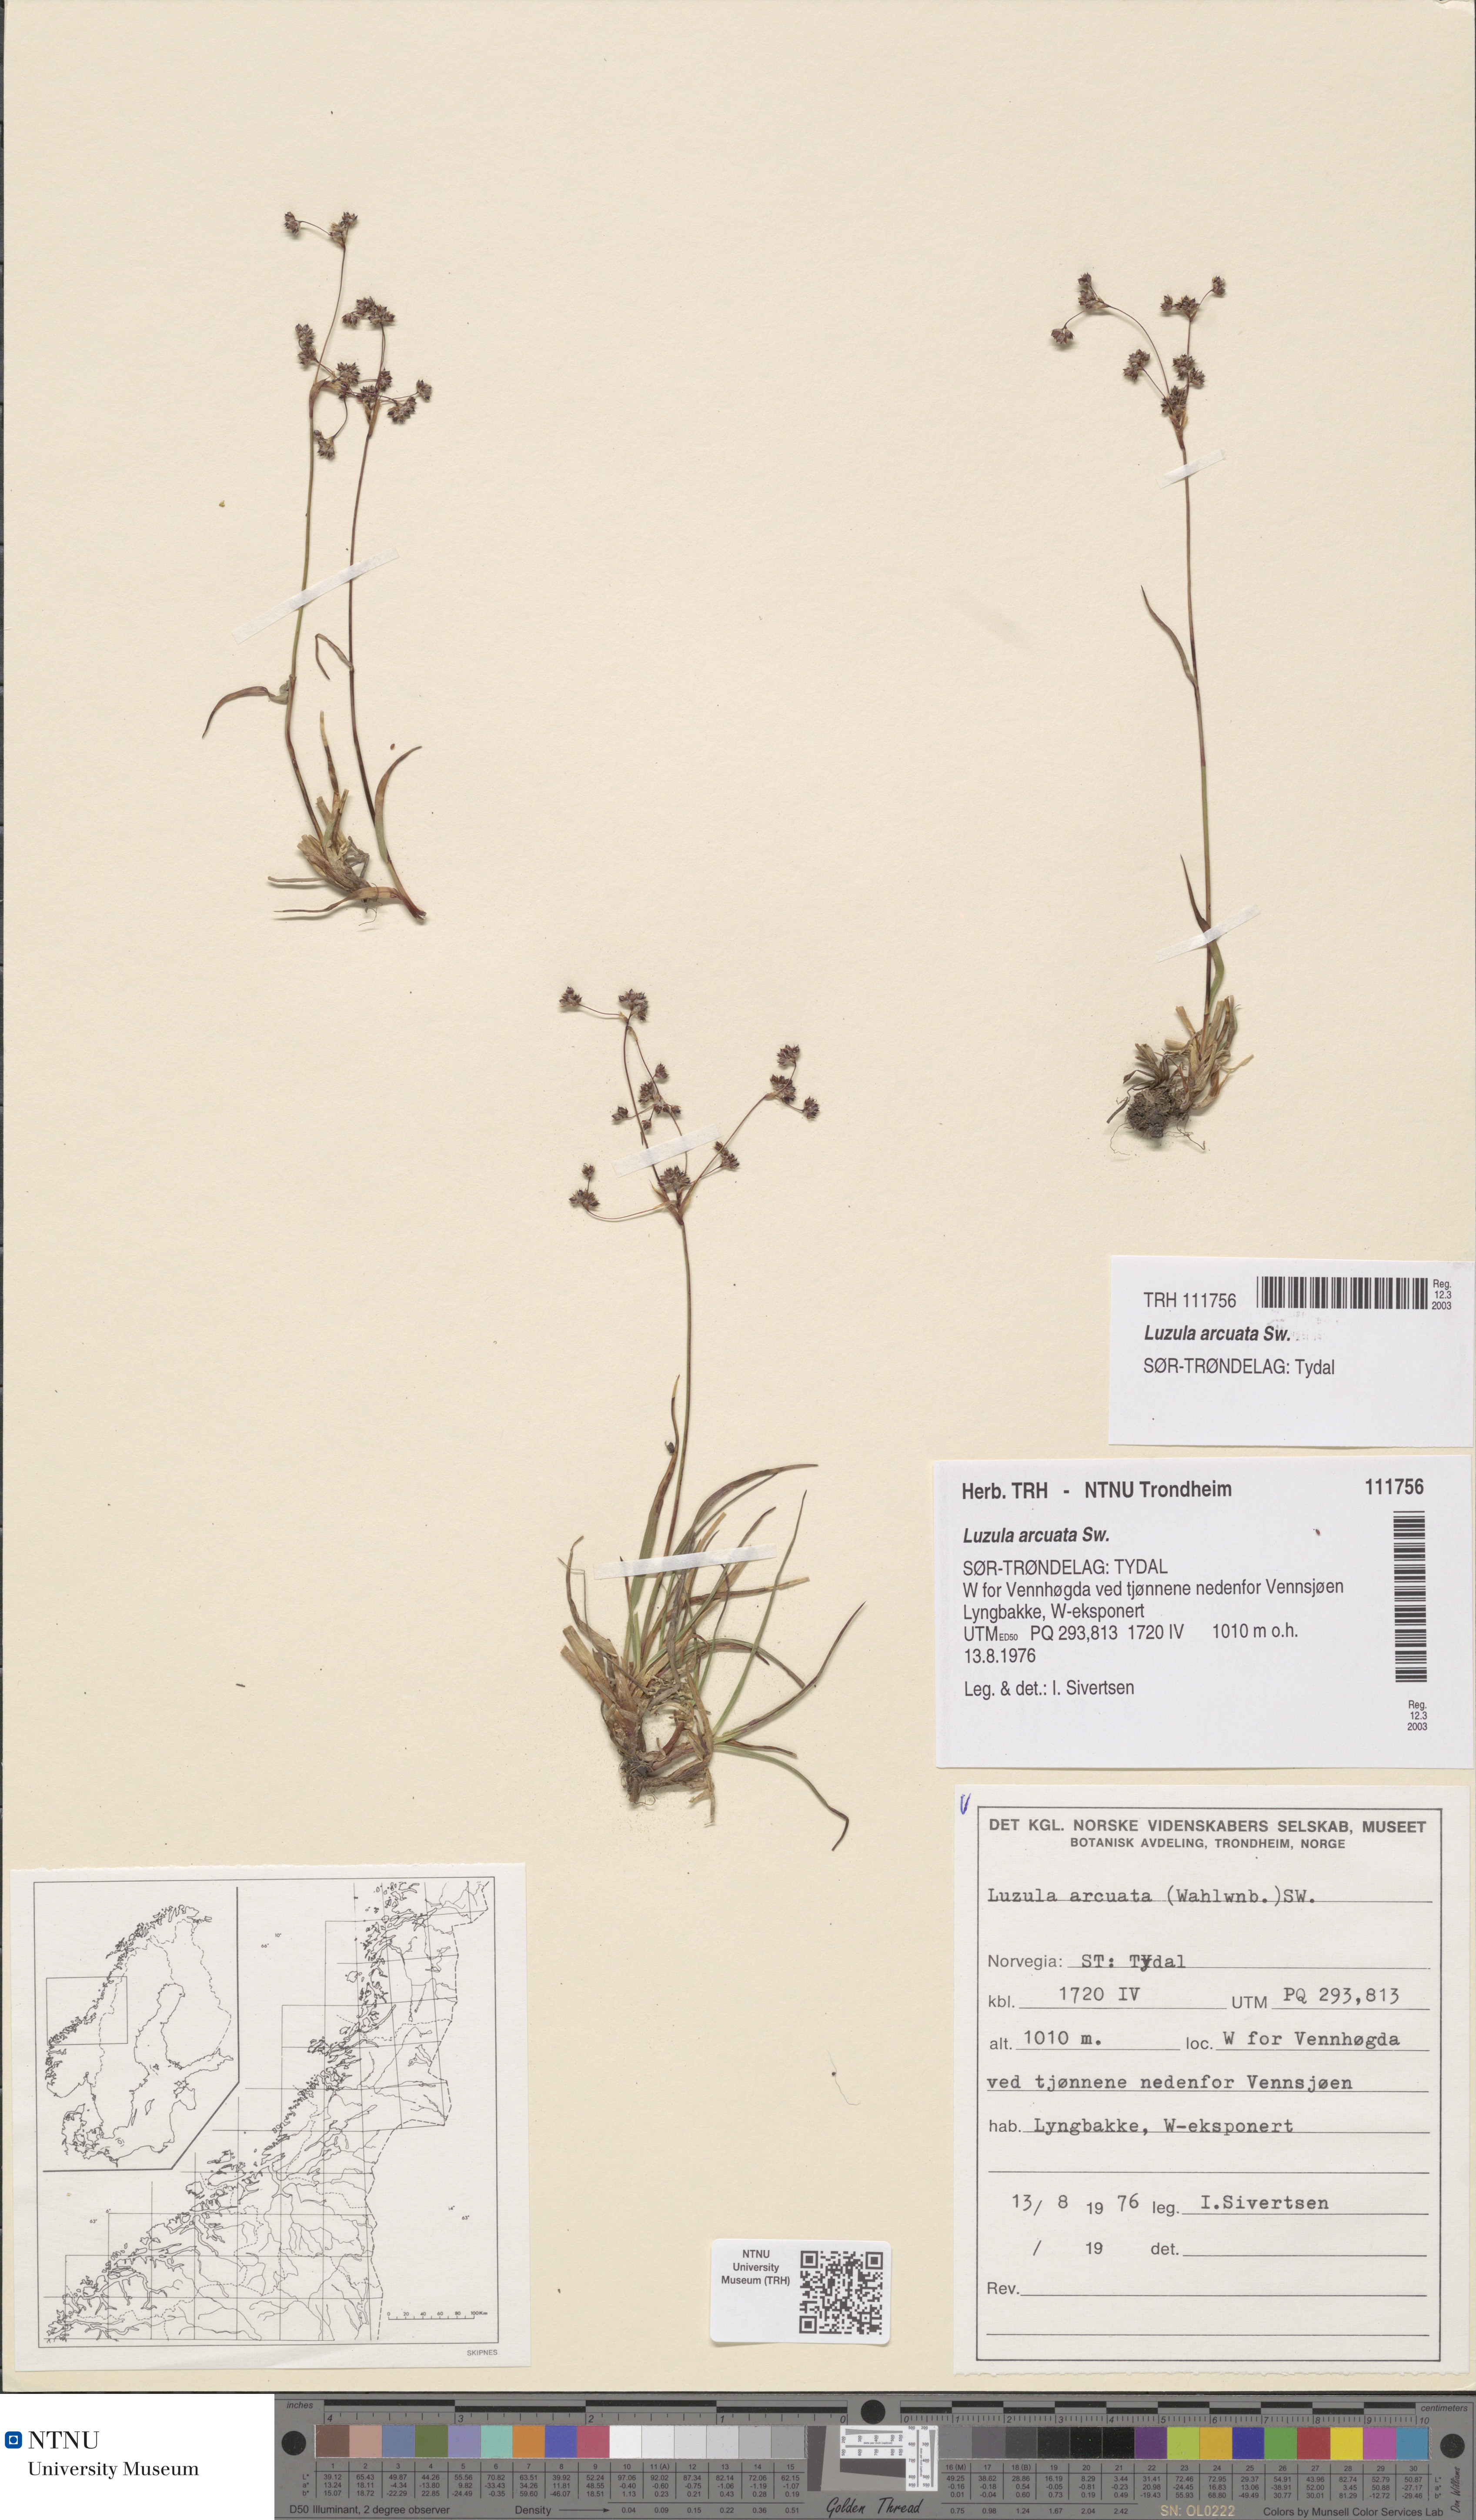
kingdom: Plantae
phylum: Tracheophyta
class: Liliopsida
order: Poales
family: Juncaceae
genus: Luzula
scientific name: Luzula arcuata
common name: Curved wood-rush
